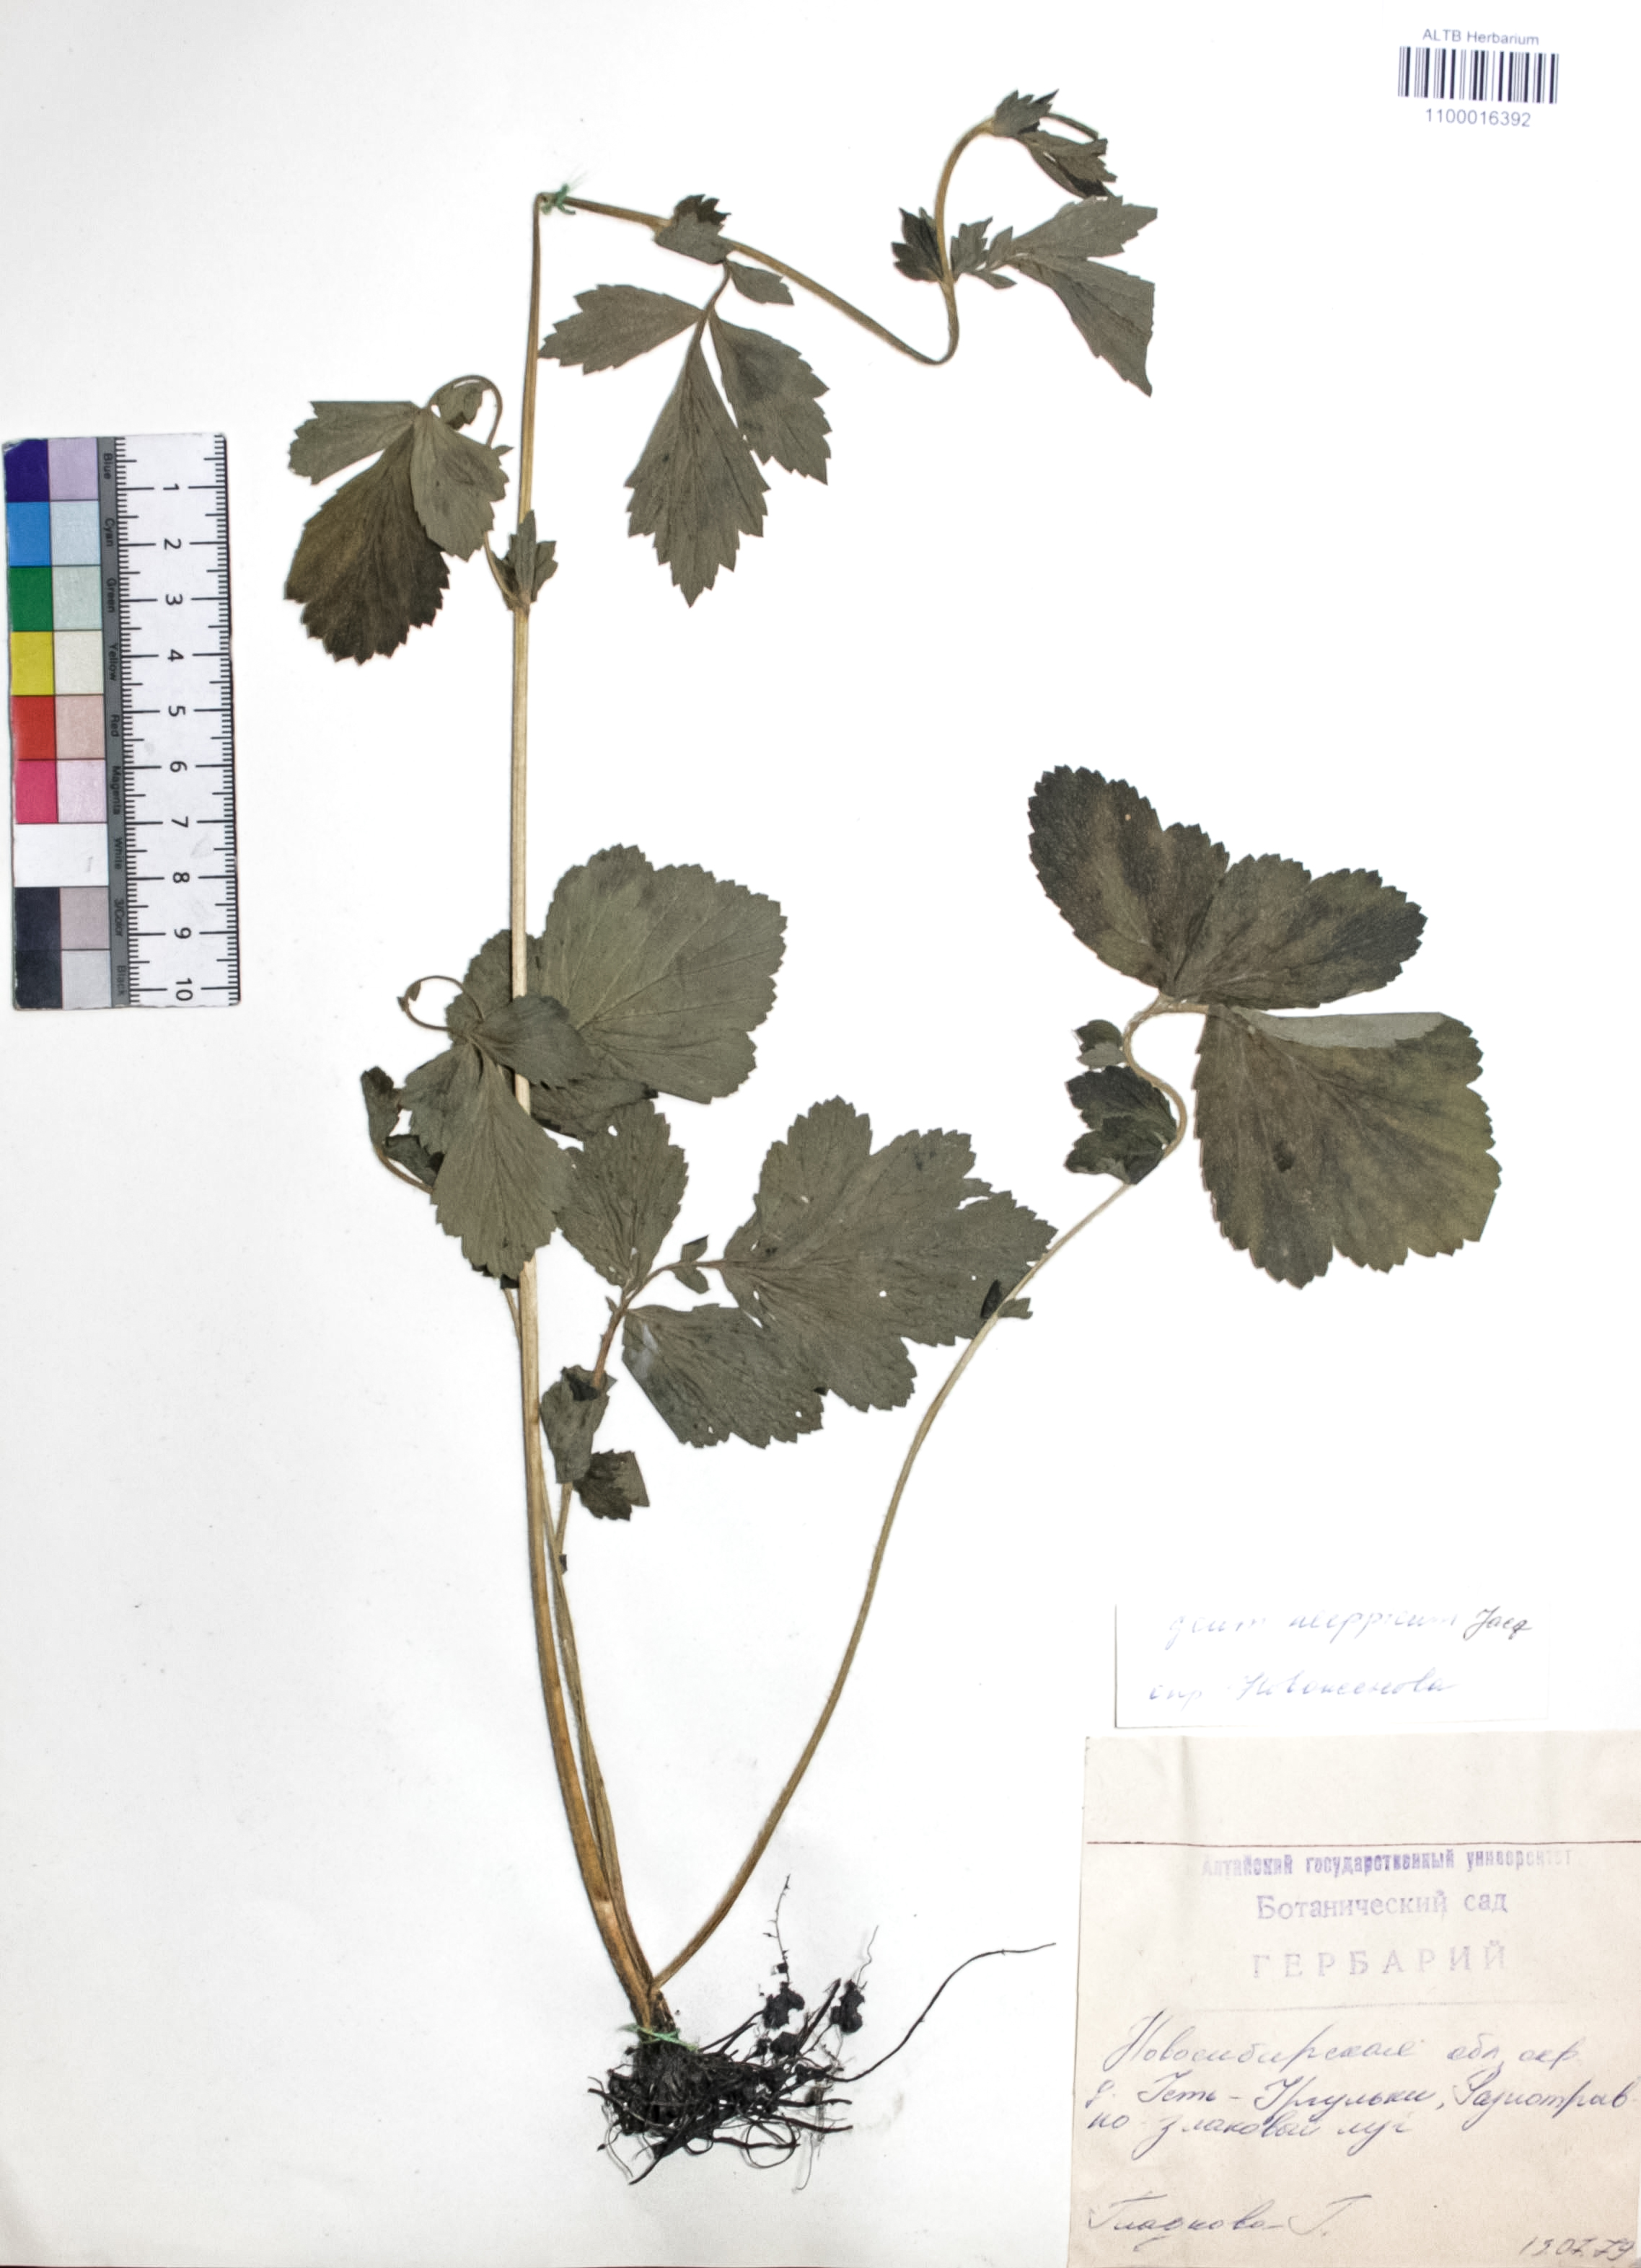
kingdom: Plantae
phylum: Tracheophyta
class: Magnoliopsida
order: Rosales
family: Rosaceae
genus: Geum
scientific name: Geum aleppicum
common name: Yellow avens
